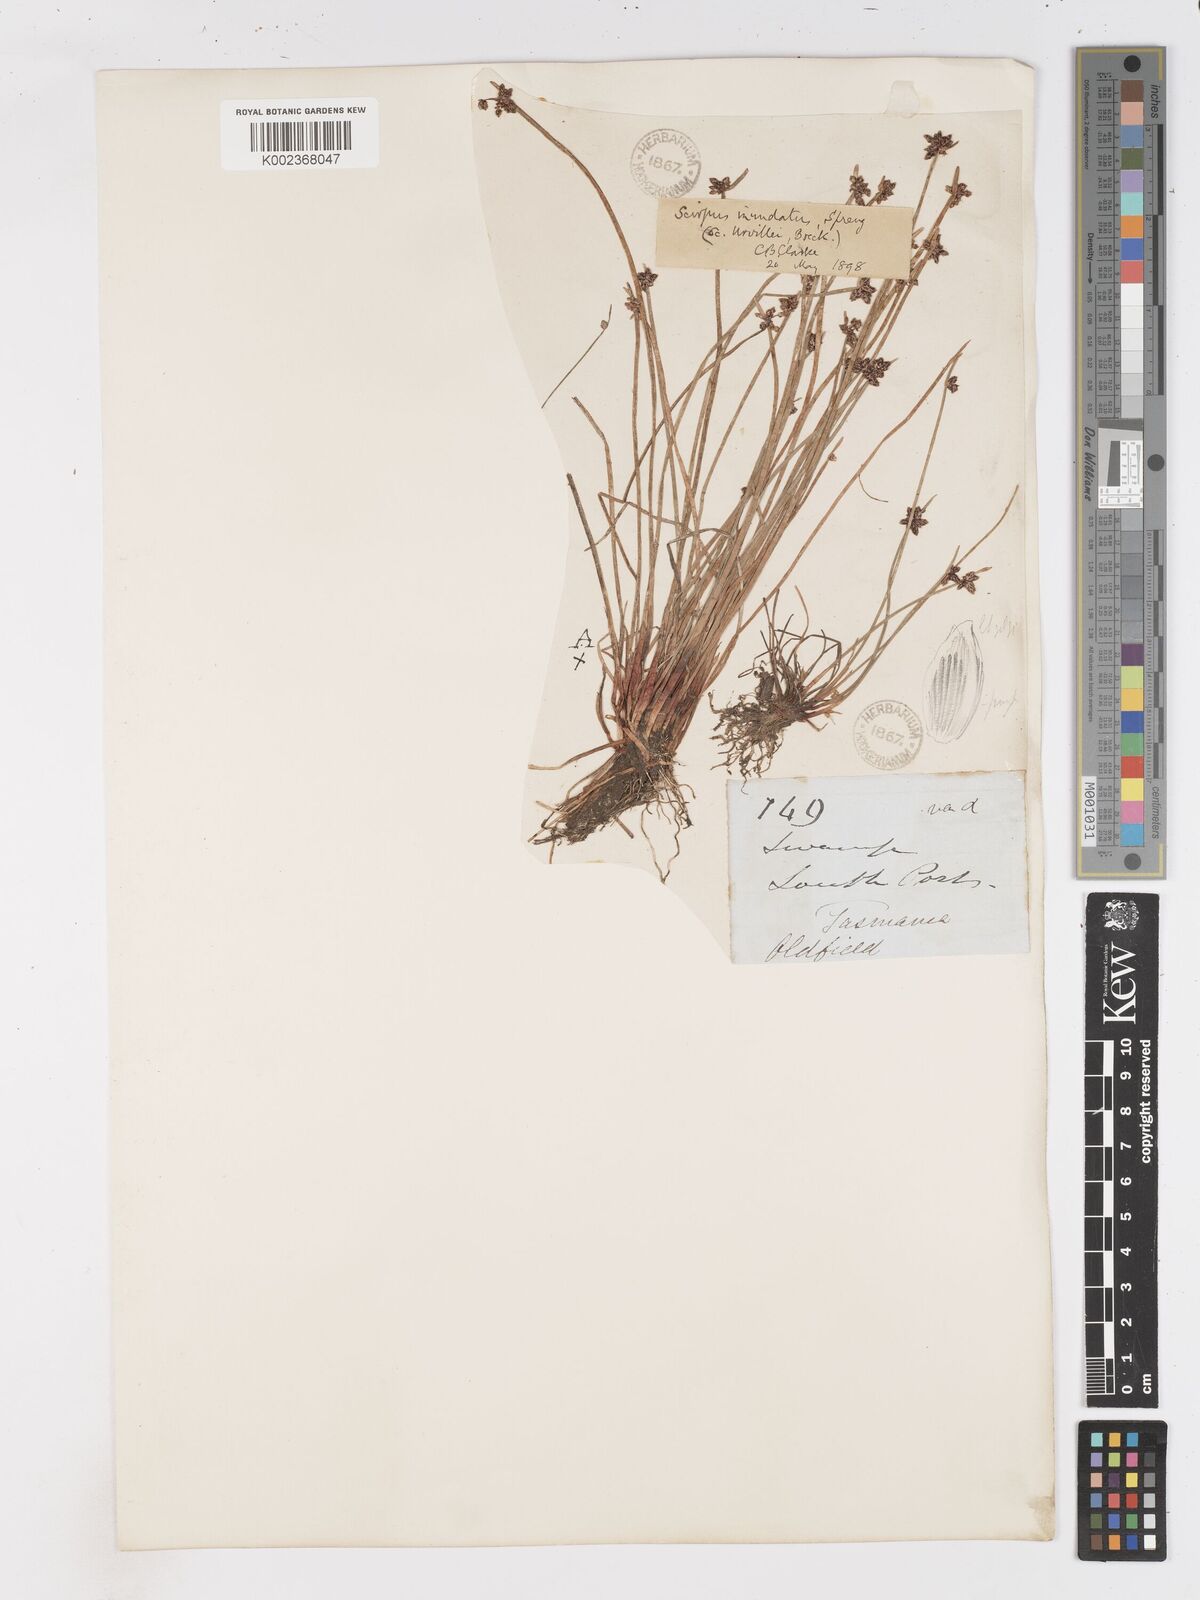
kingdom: Plantae
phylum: Tracheophyta
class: Liliopsida
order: Poales
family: Cyperaceae
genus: Isolepis
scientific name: Isolepis inundata
